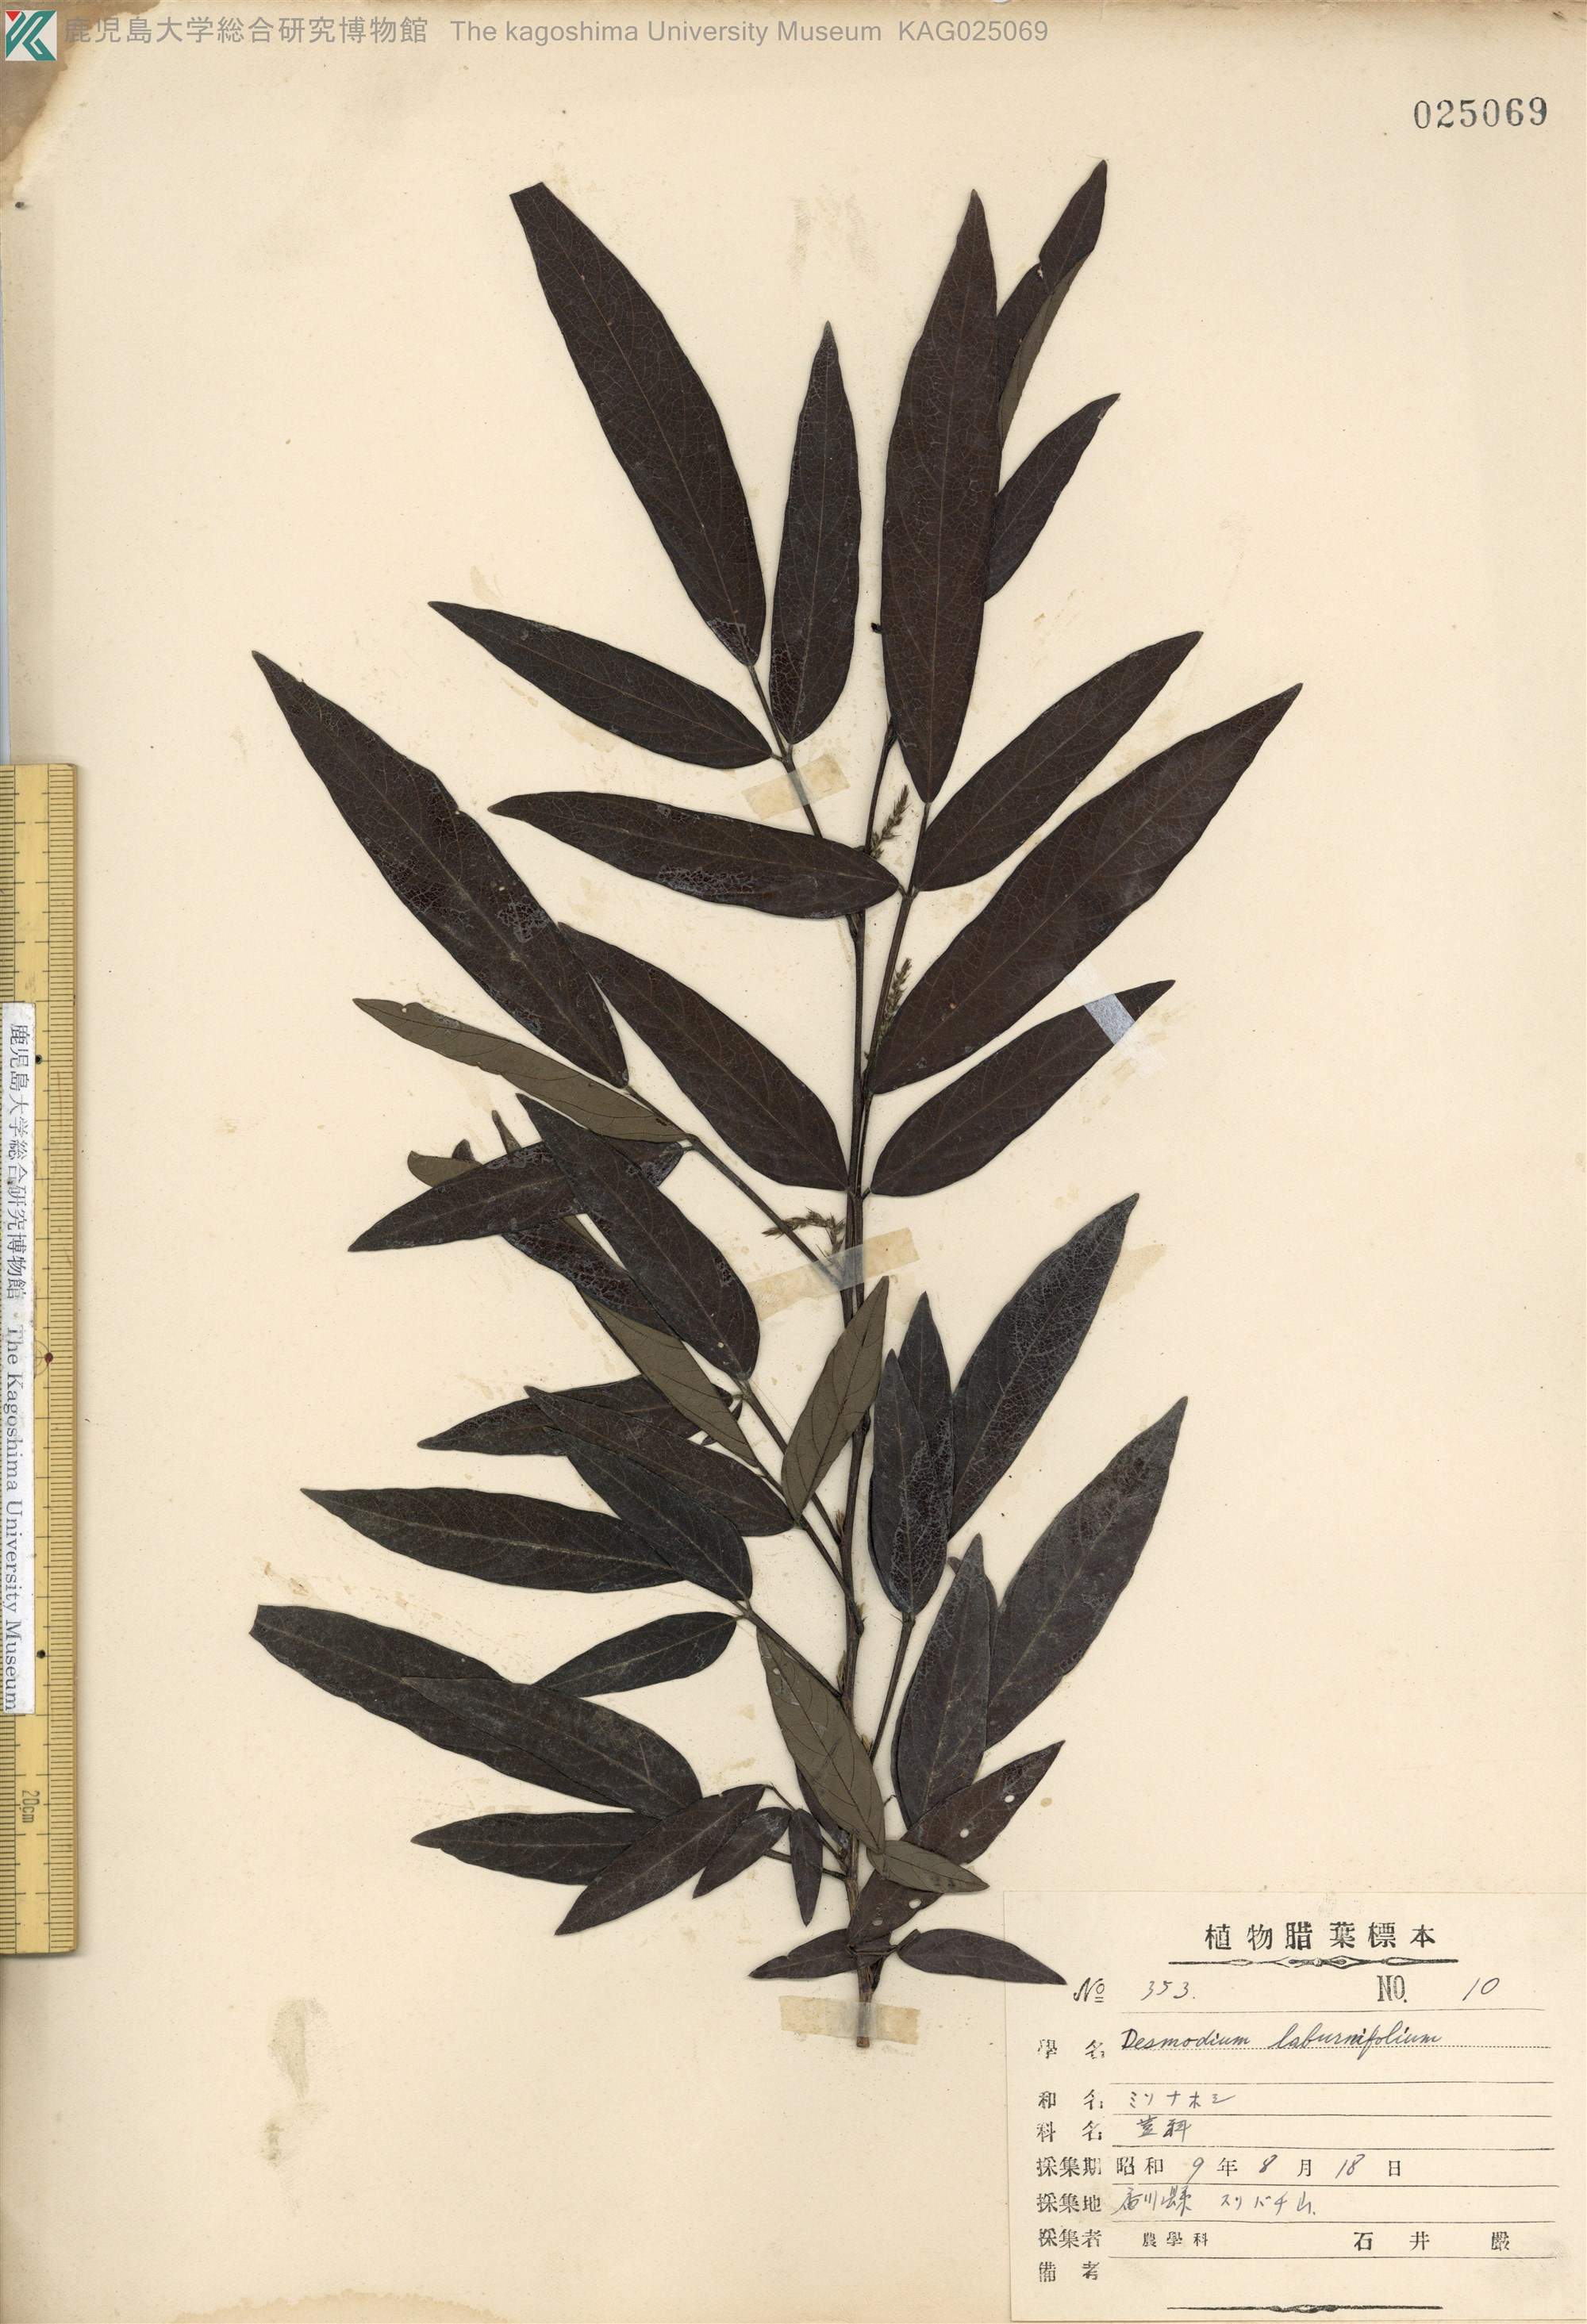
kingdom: Plantae
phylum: Tracheophyta
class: Magnoliopsida
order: Fabales
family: Fabaceae
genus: Ohwia
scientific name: Ohwia caudata
